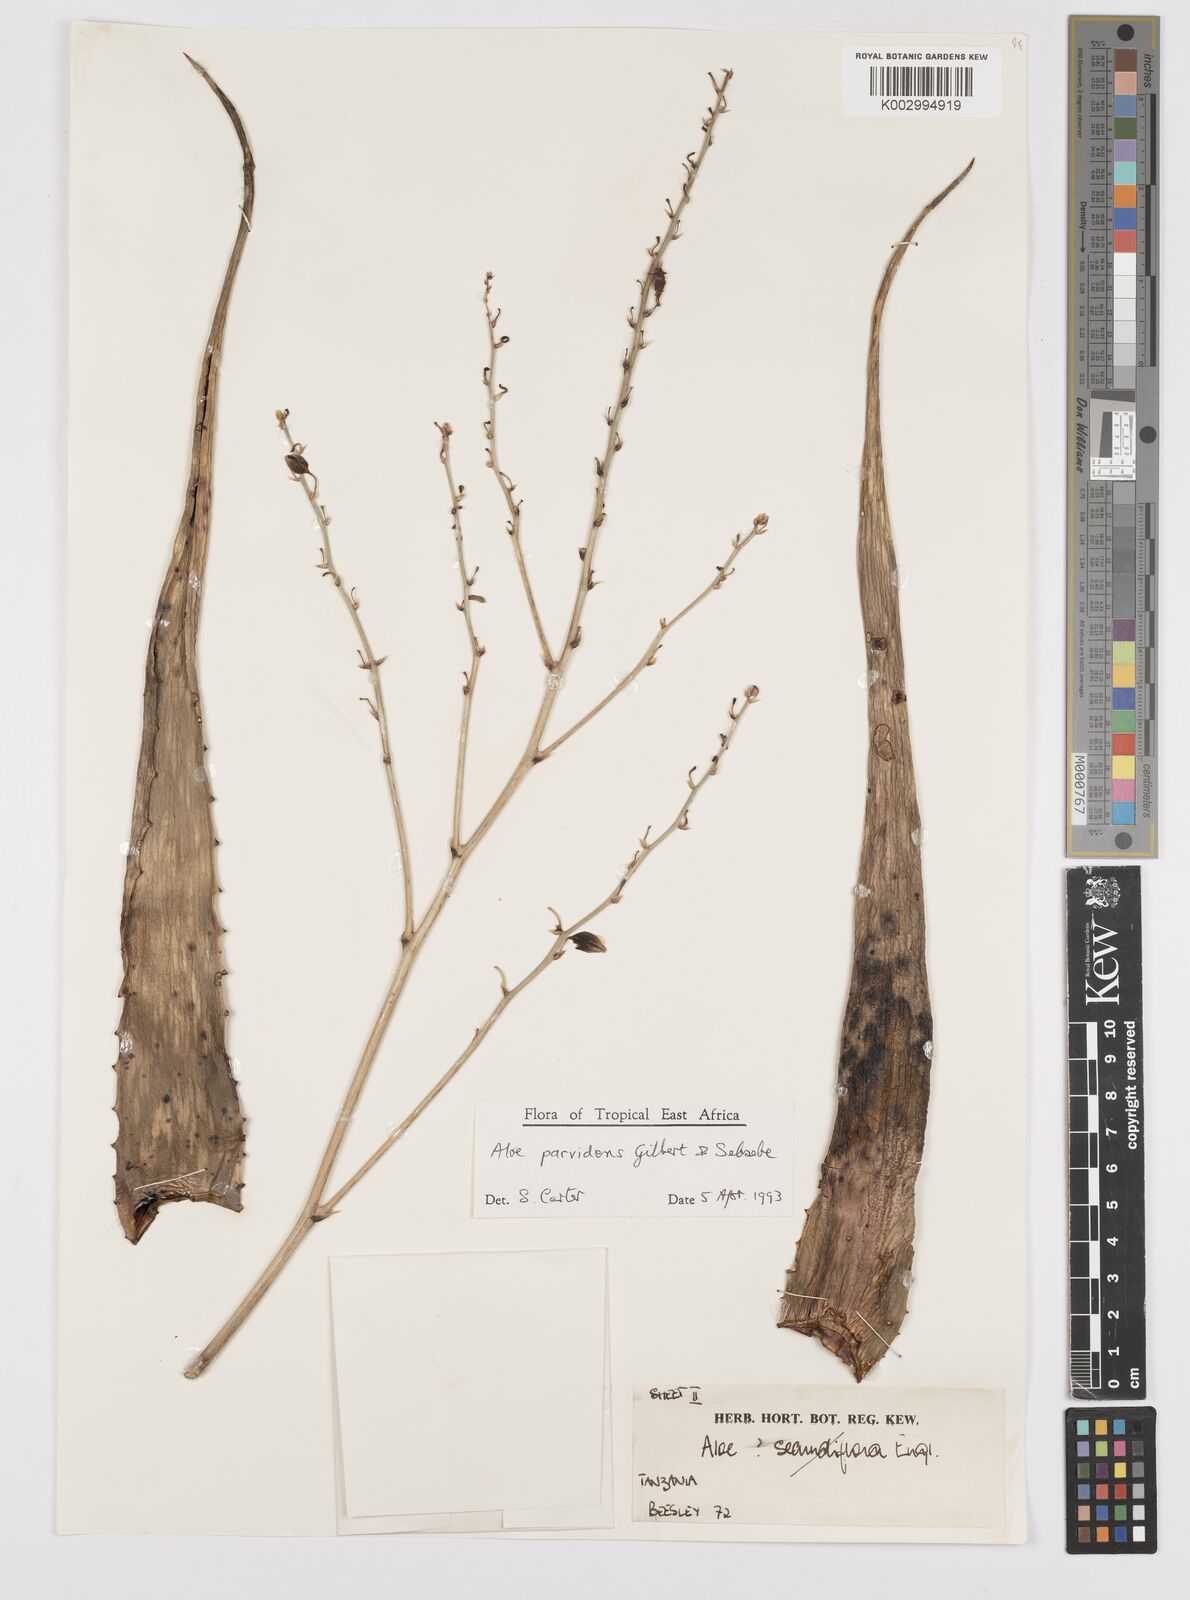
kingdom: Plantae
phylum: Tracheophyta
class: Liliopsida
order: Asparagales
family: Asphodelaceae
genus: Aloe
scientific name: Aloe parvidens
